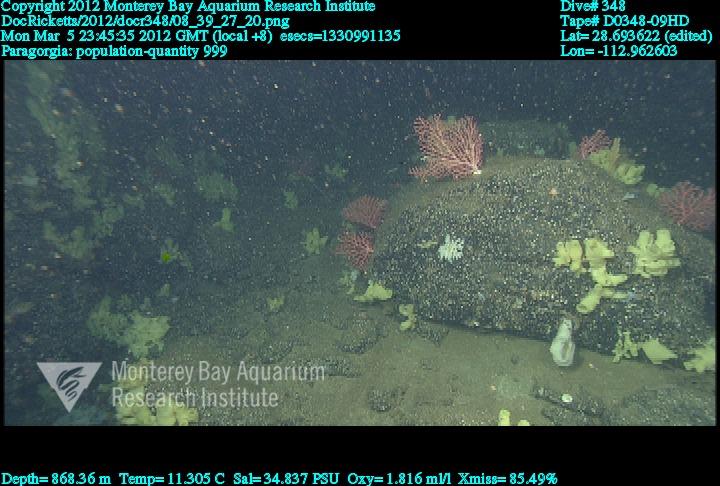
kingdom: Animalia
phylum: Cnidaria
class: Anthozoa
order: Scleralcyonacea
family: Coralliidae
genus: Paragorgia
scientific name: Paragorgia
